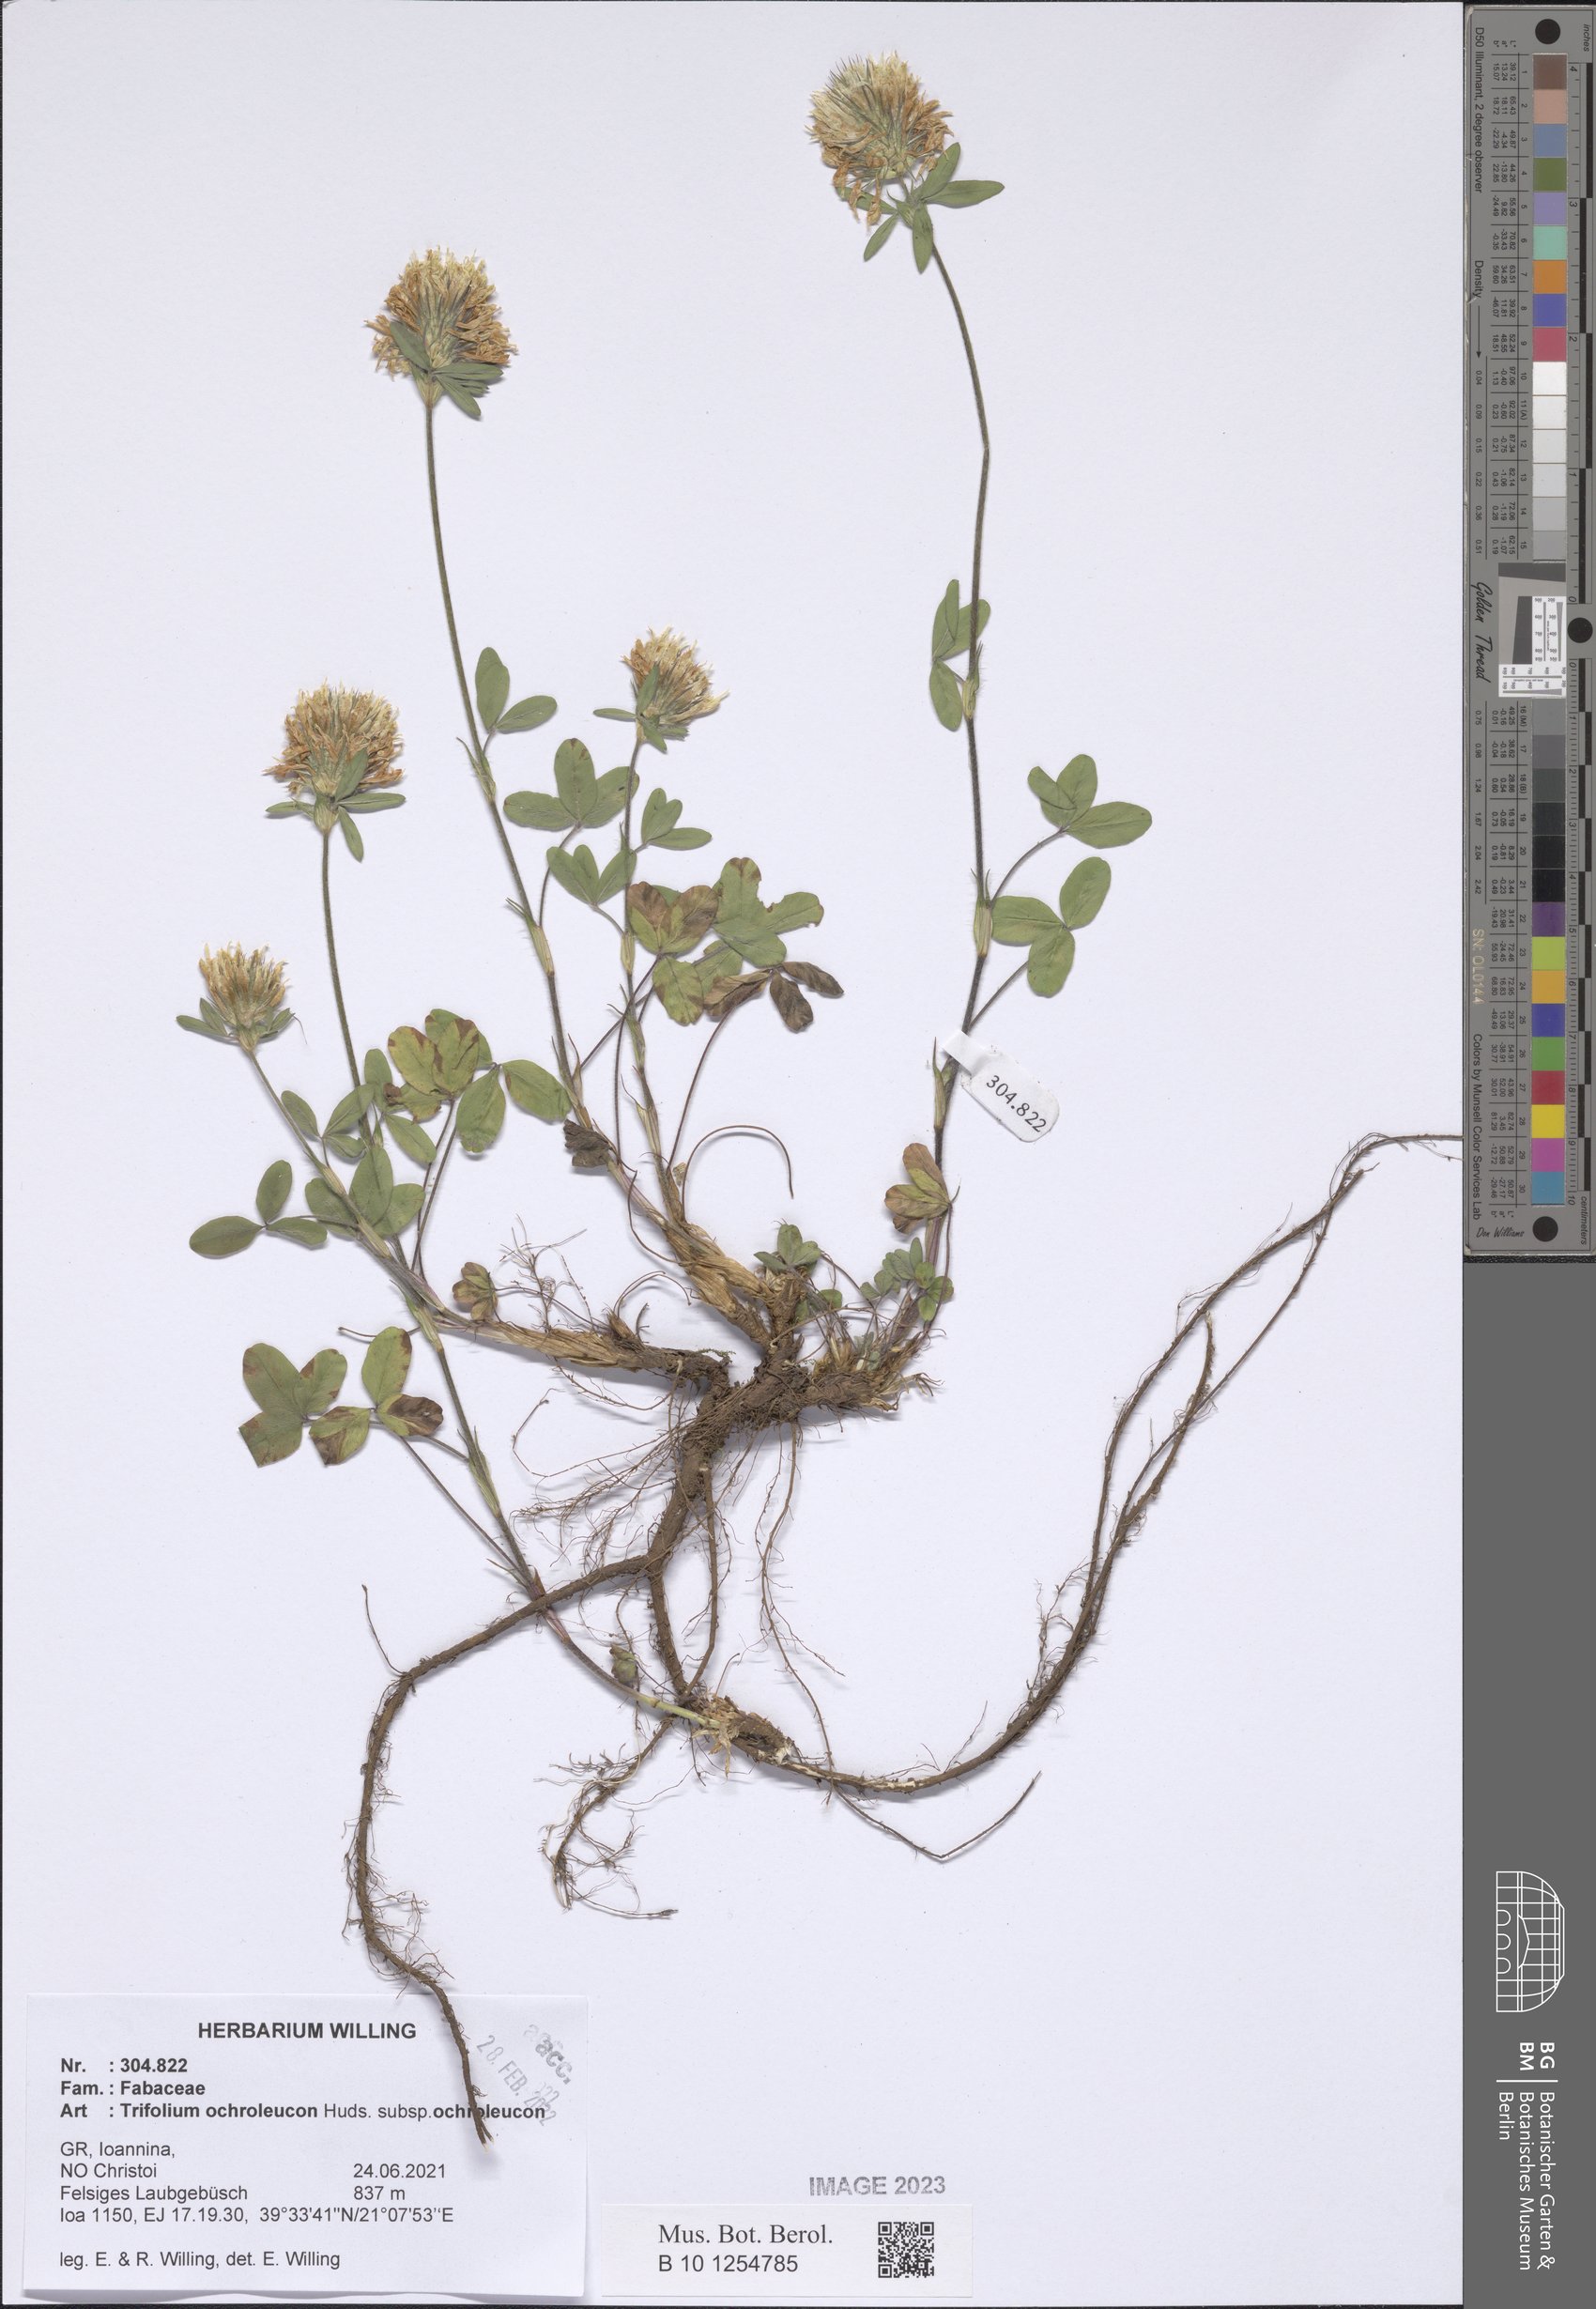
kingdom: Plantae
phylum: Tracheophyta
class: Magnoliopsida
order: Fabales
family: Fabaceae
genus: Trifolium
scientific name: Trifolium ochroleucon
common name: Sulphur clover
